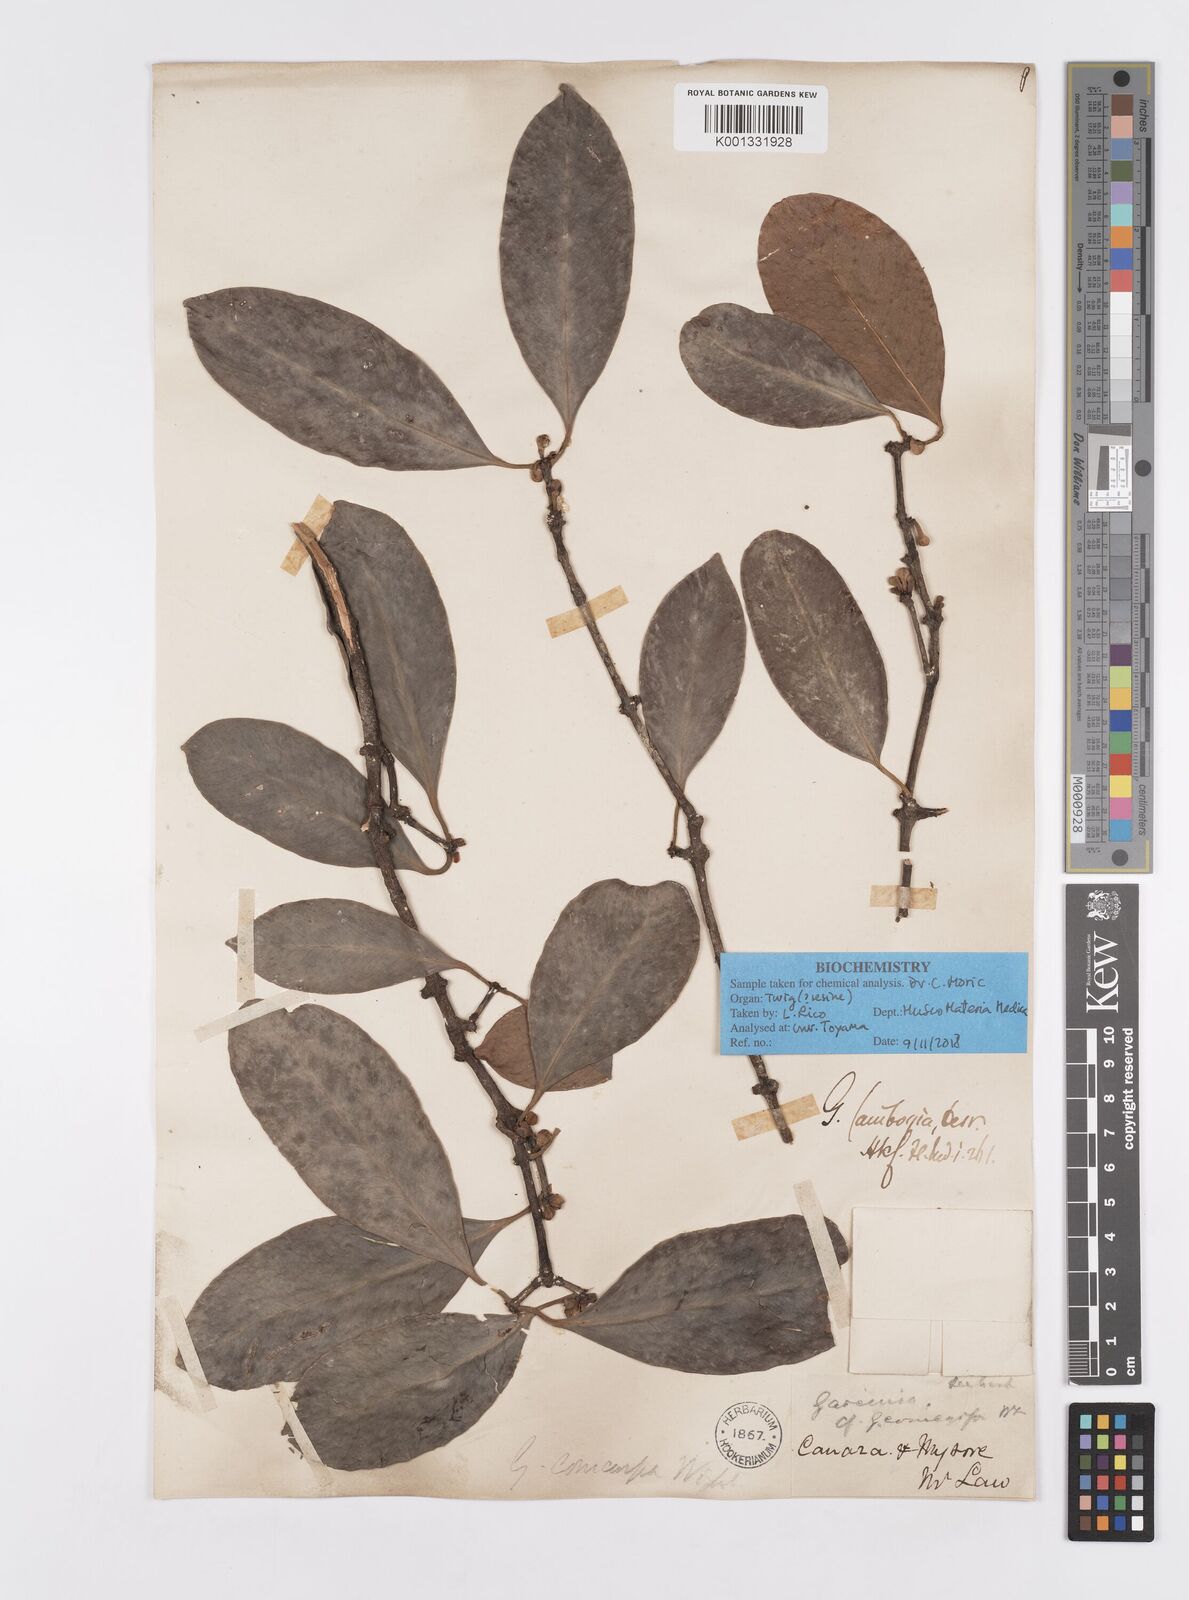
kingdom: Plantae
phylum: Tracheophyta
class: Magnoliopsida
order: Malpighiales
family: Clusiaceae
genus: Garcinia
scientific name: Garcinia gummi-gutta
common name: Malabar tamarind
